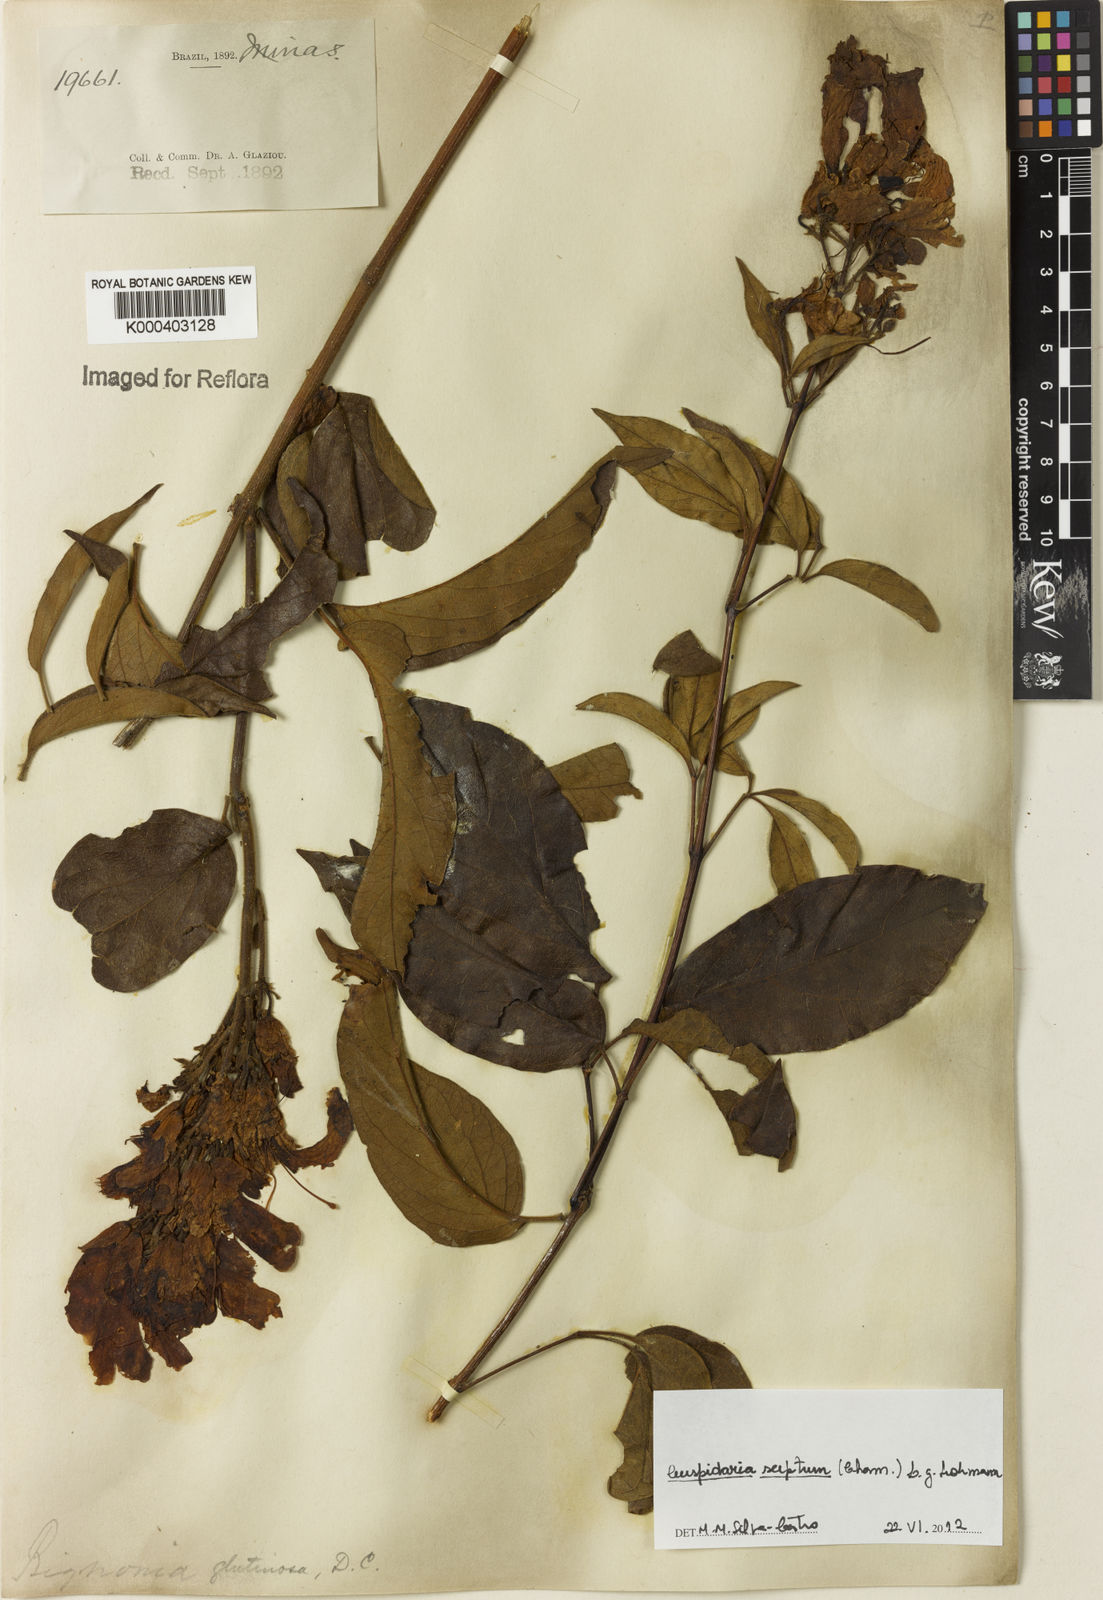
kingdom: Plantae
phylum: Tracheophyta
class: Magnoliopsida
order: Lamiales
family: Bignoniaceae
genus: Cuspidaria
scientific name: Cuspidaria sceptrum
